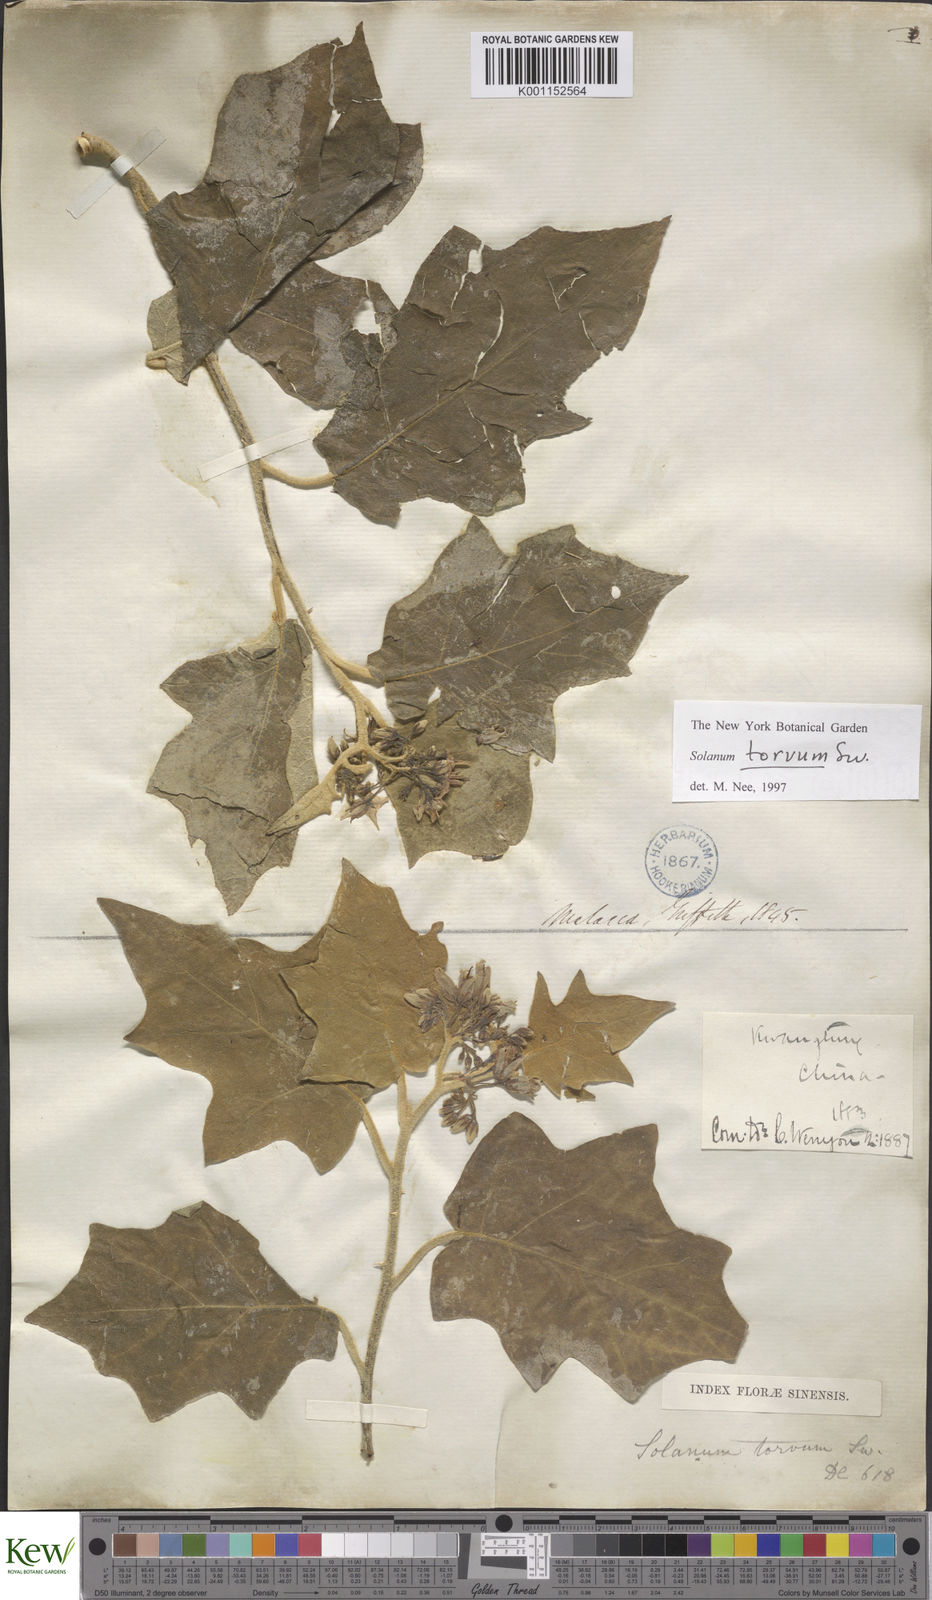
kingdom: Plantae
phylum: Tracheophyta
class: Magnoliopsida
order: Solanales
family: Solanaceae
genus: Solanum
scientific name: Solanum torvum
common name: Turkey berry
